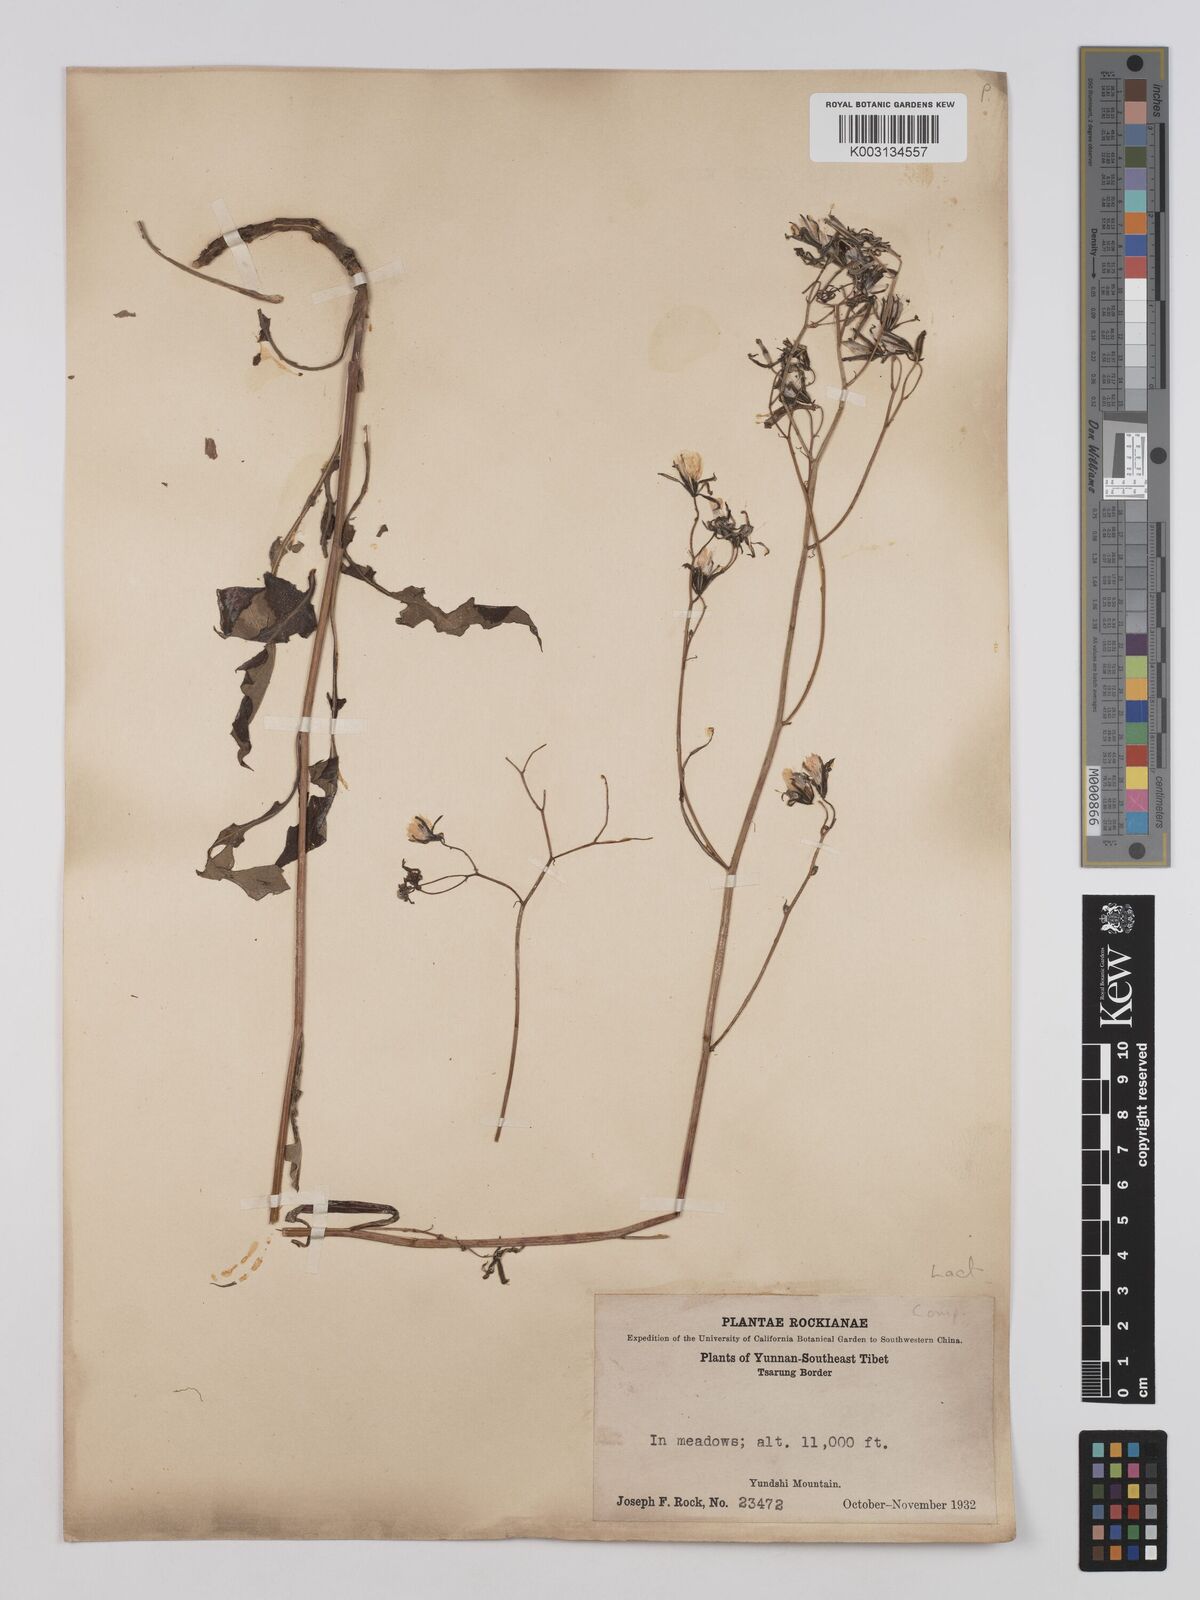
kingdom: Plantae
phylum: Tracheophyta
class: Magnoliopsida
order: Asterales
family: Asteraceae
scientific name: Asteraceae
